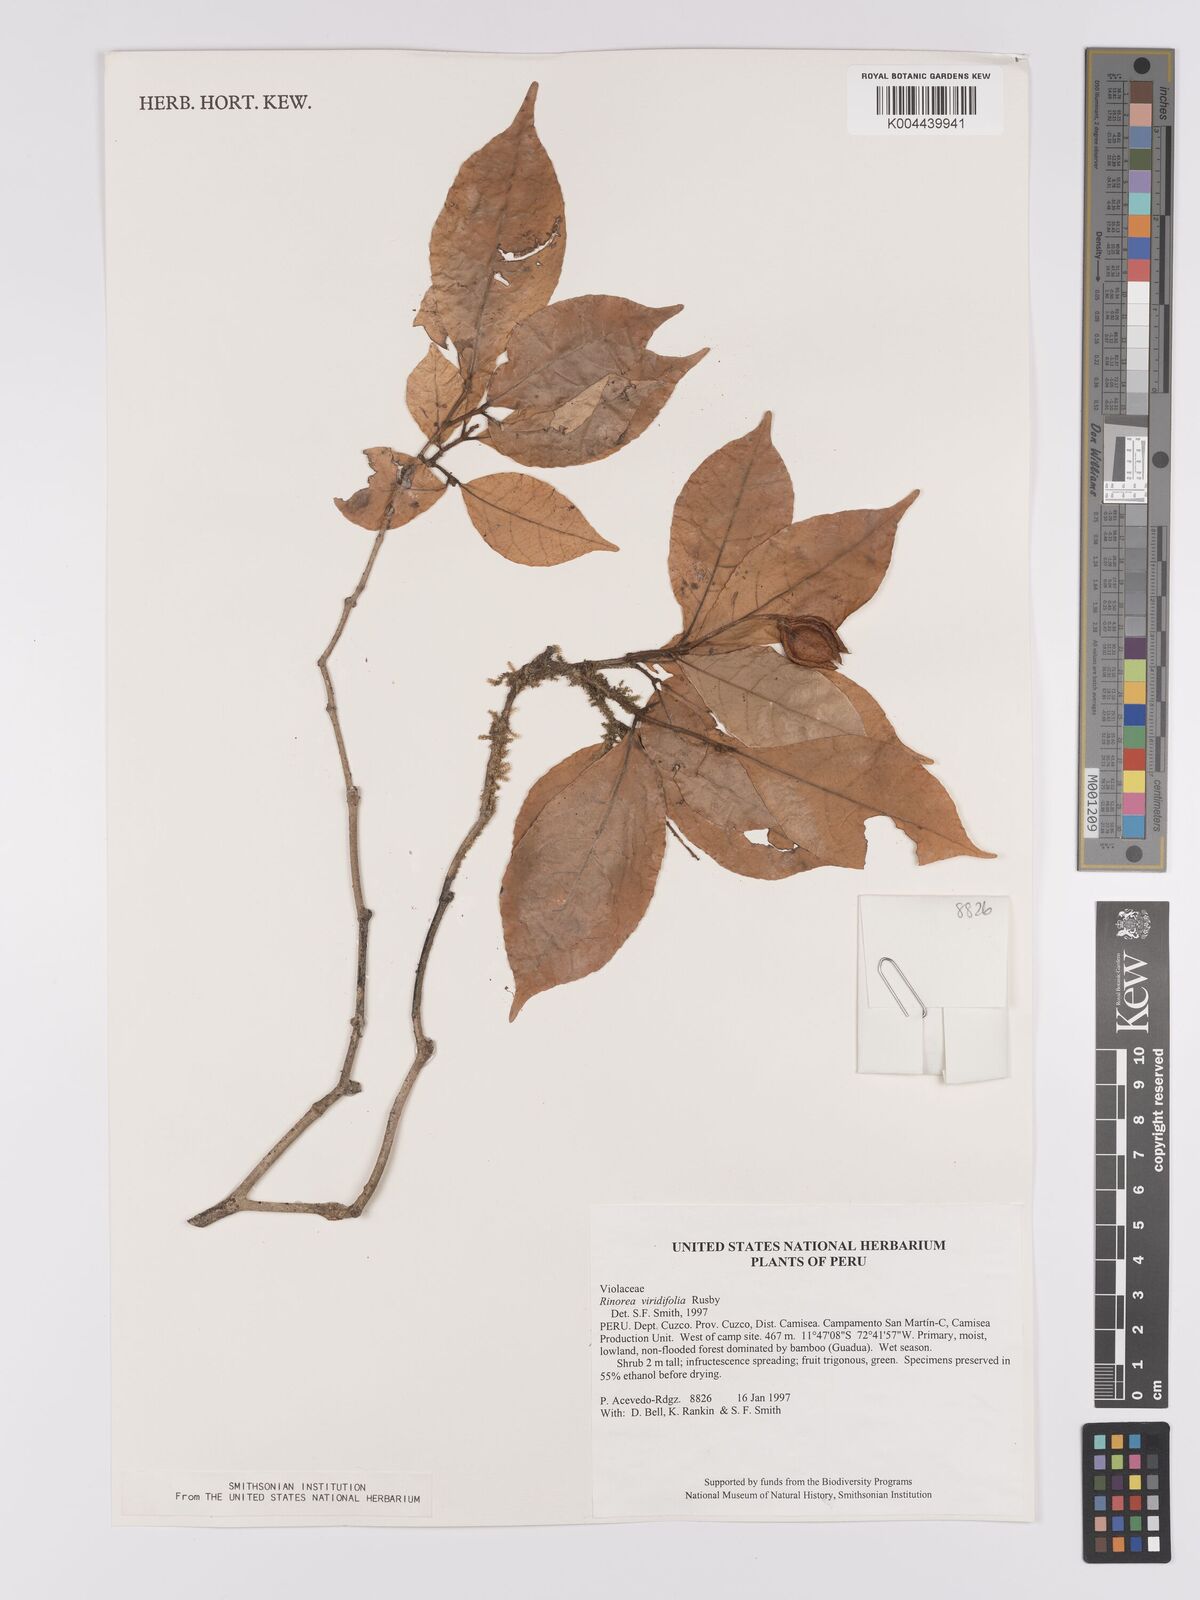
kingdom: Plantae
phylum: Tracheophyta
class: Magnoliopsida
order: Malpighiales
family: Violaceae
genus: Rinorea
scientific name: Rinorea viridifolia
